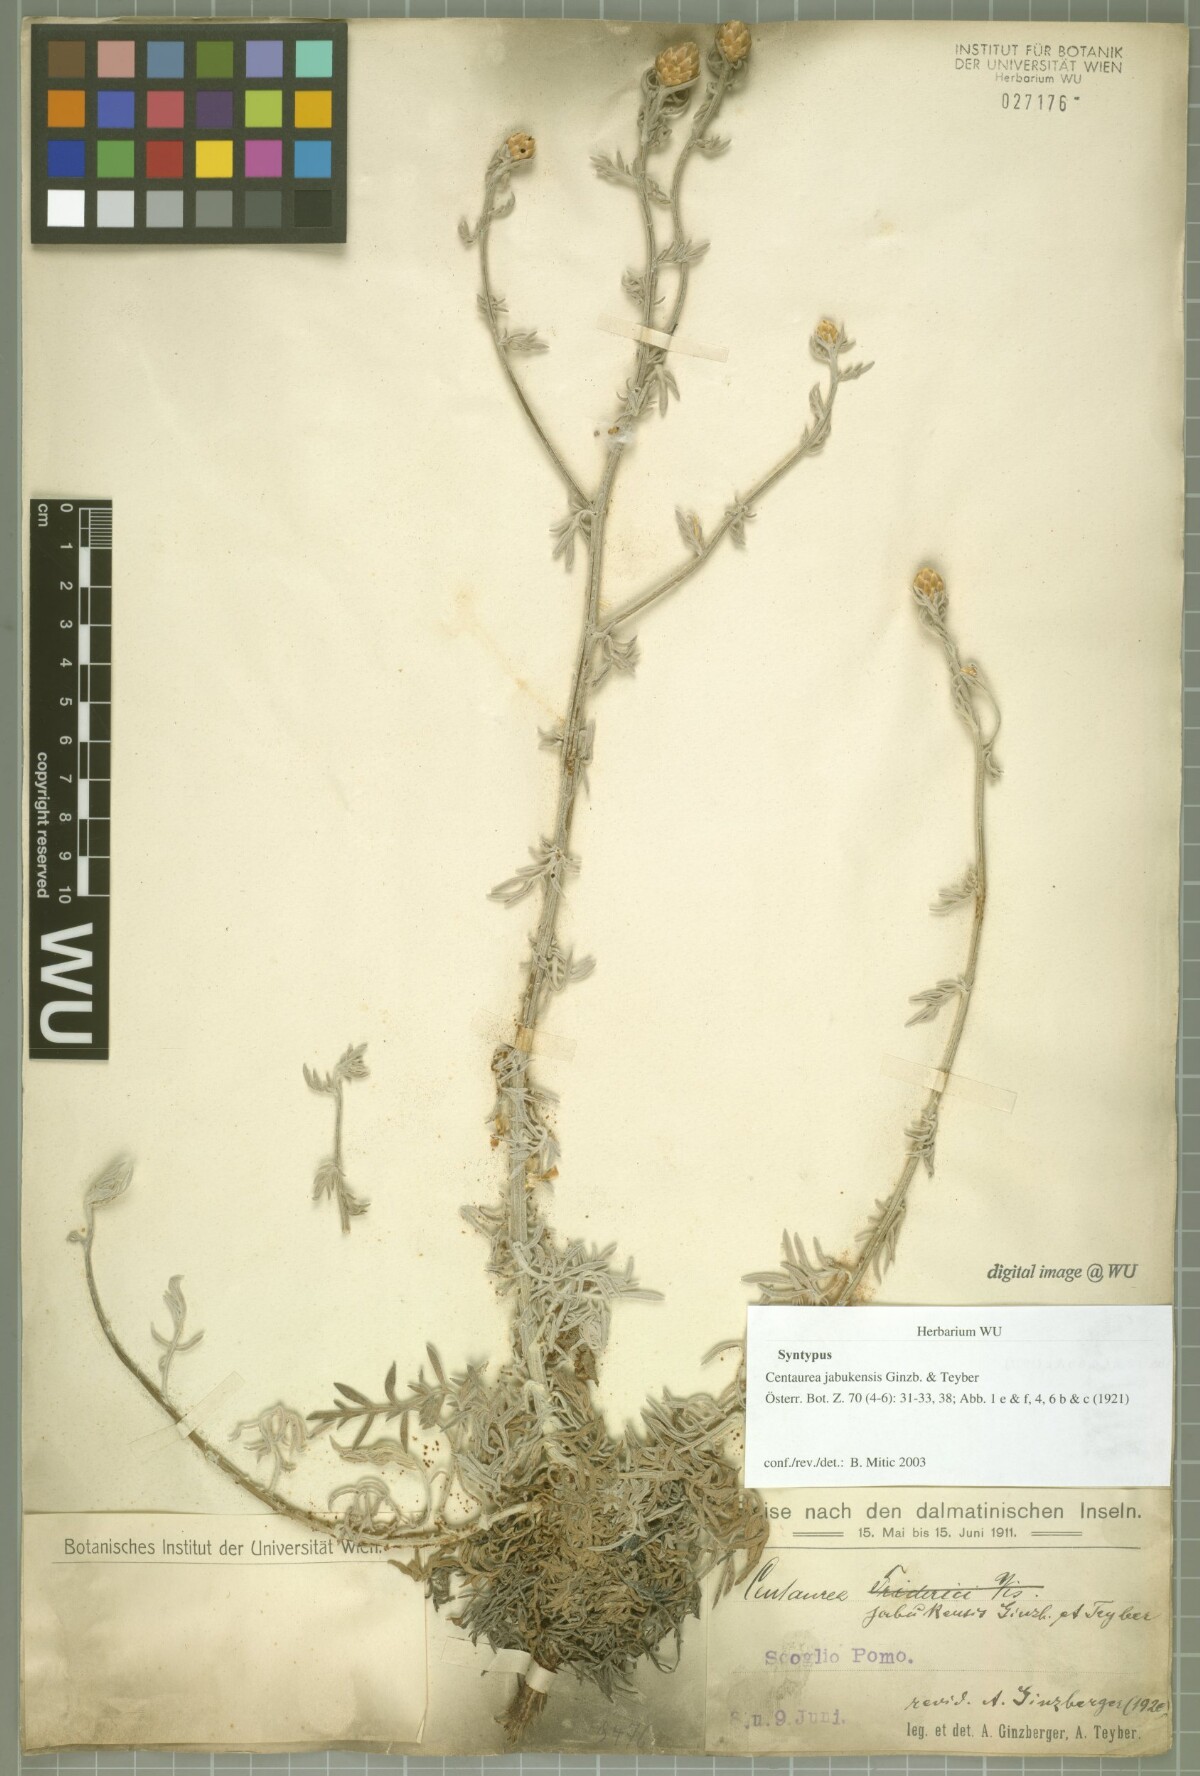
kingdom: Plantae
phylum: Tracheophyta
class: Magnoliopsida
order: Asterales
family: Asteraceae
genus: Centaurea
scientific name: Centaurea friderici
